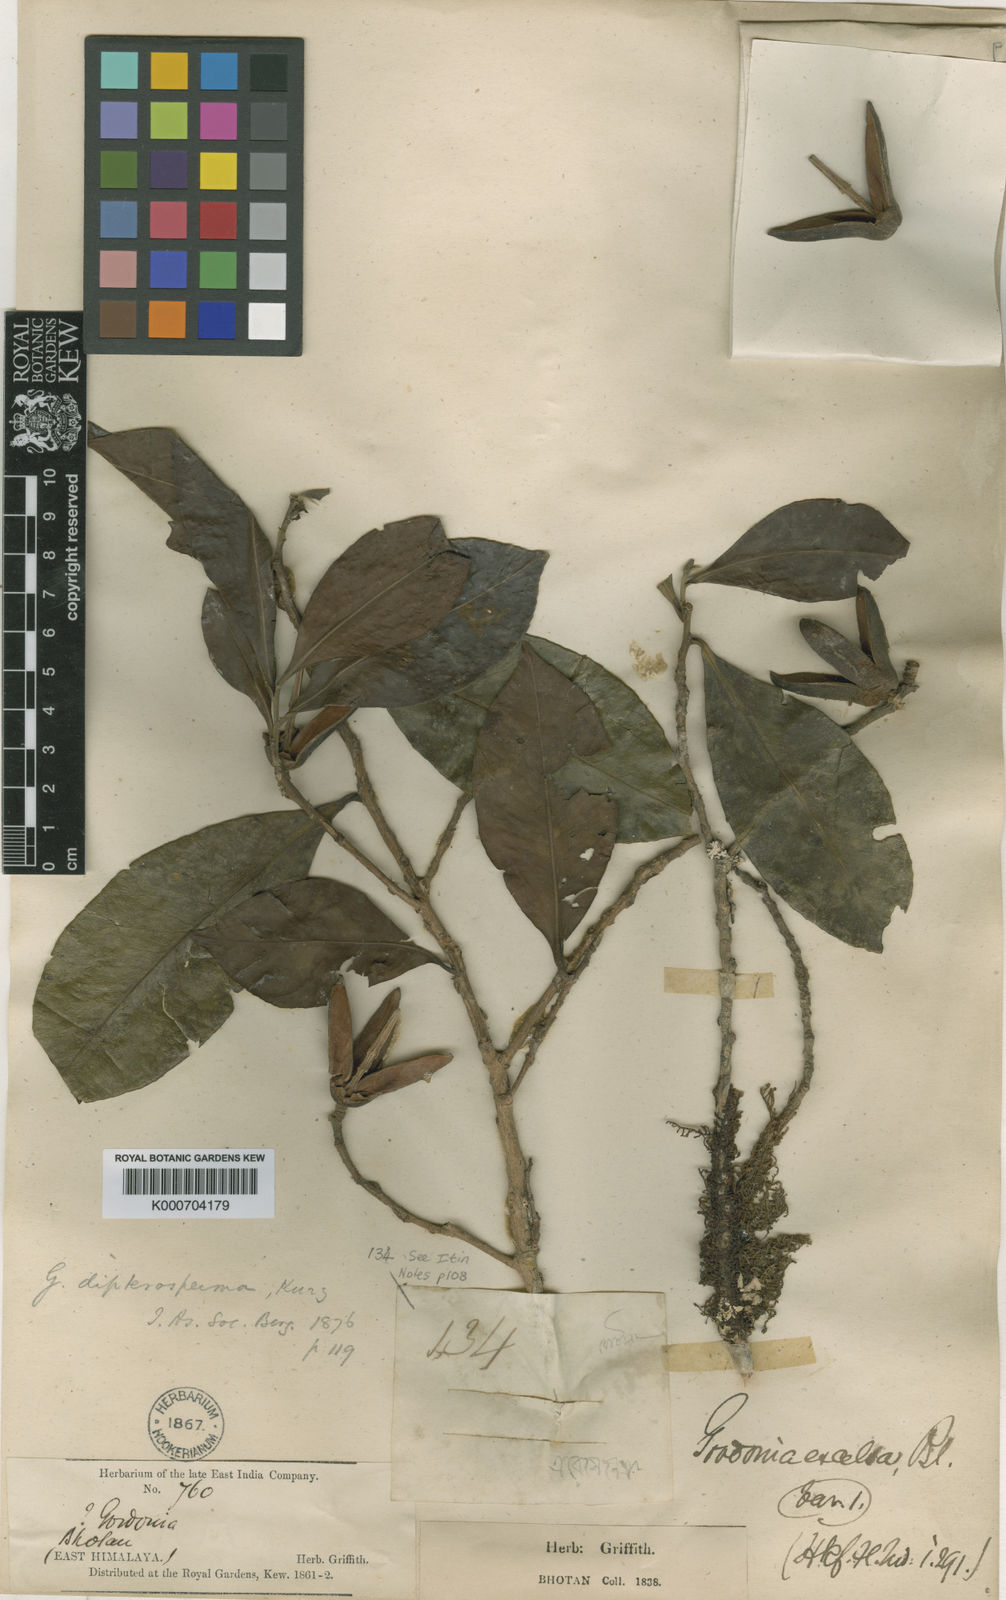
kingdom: Plantae
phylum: Tracheophyta
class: Magnoliopsida
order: Ericales
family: Theaceae
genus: Polyspora
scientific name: Polyspora excelsa
